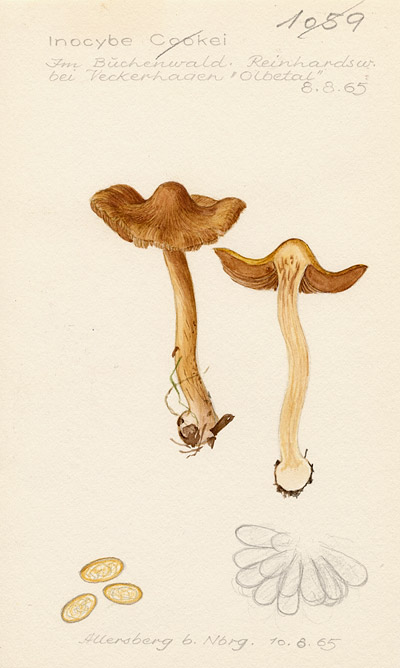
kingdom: Fungi
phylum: Basidiomycota
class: Agaricomycetes
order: Agaricales
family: Inocybaceae
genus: Inosperma
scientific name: Inosperma cookei
